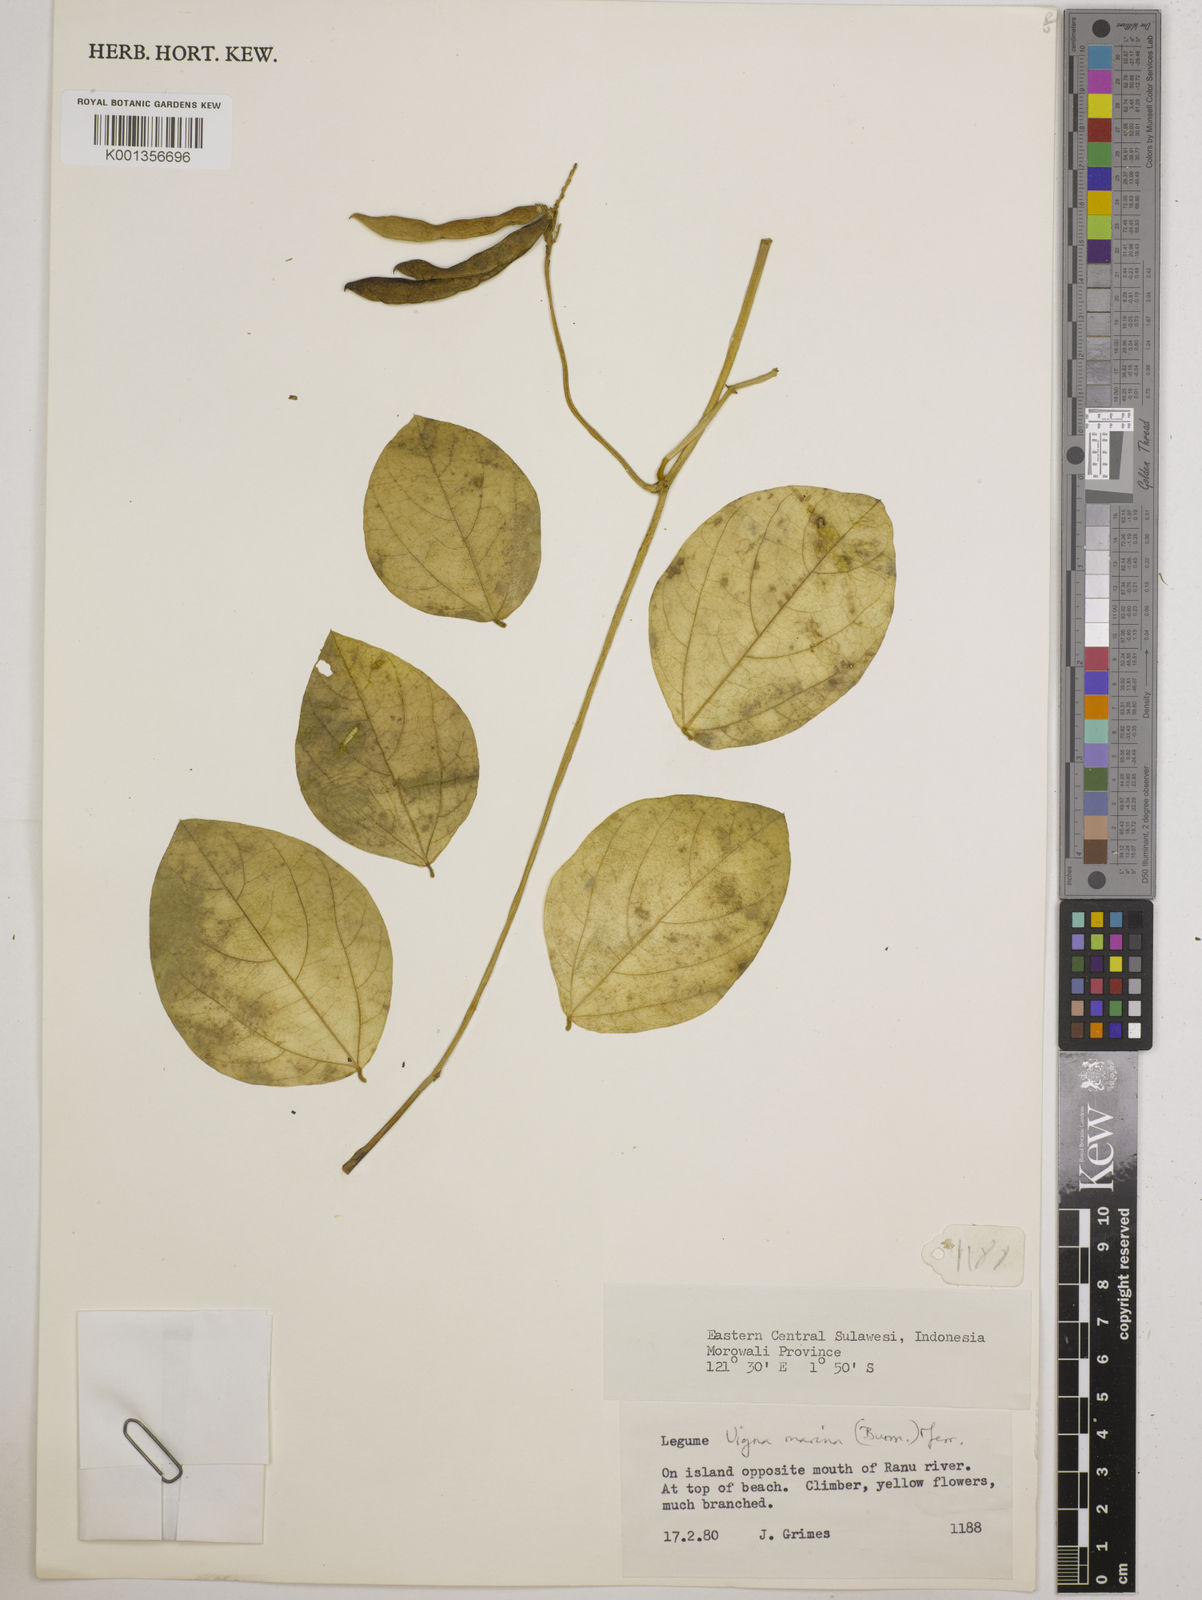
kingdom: Plantae
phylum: Tracheophyta
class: Magnoliopsida
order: Fabales
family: Fabaceae
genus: Vigna
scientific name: Vigna marina
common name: Dune-bean
